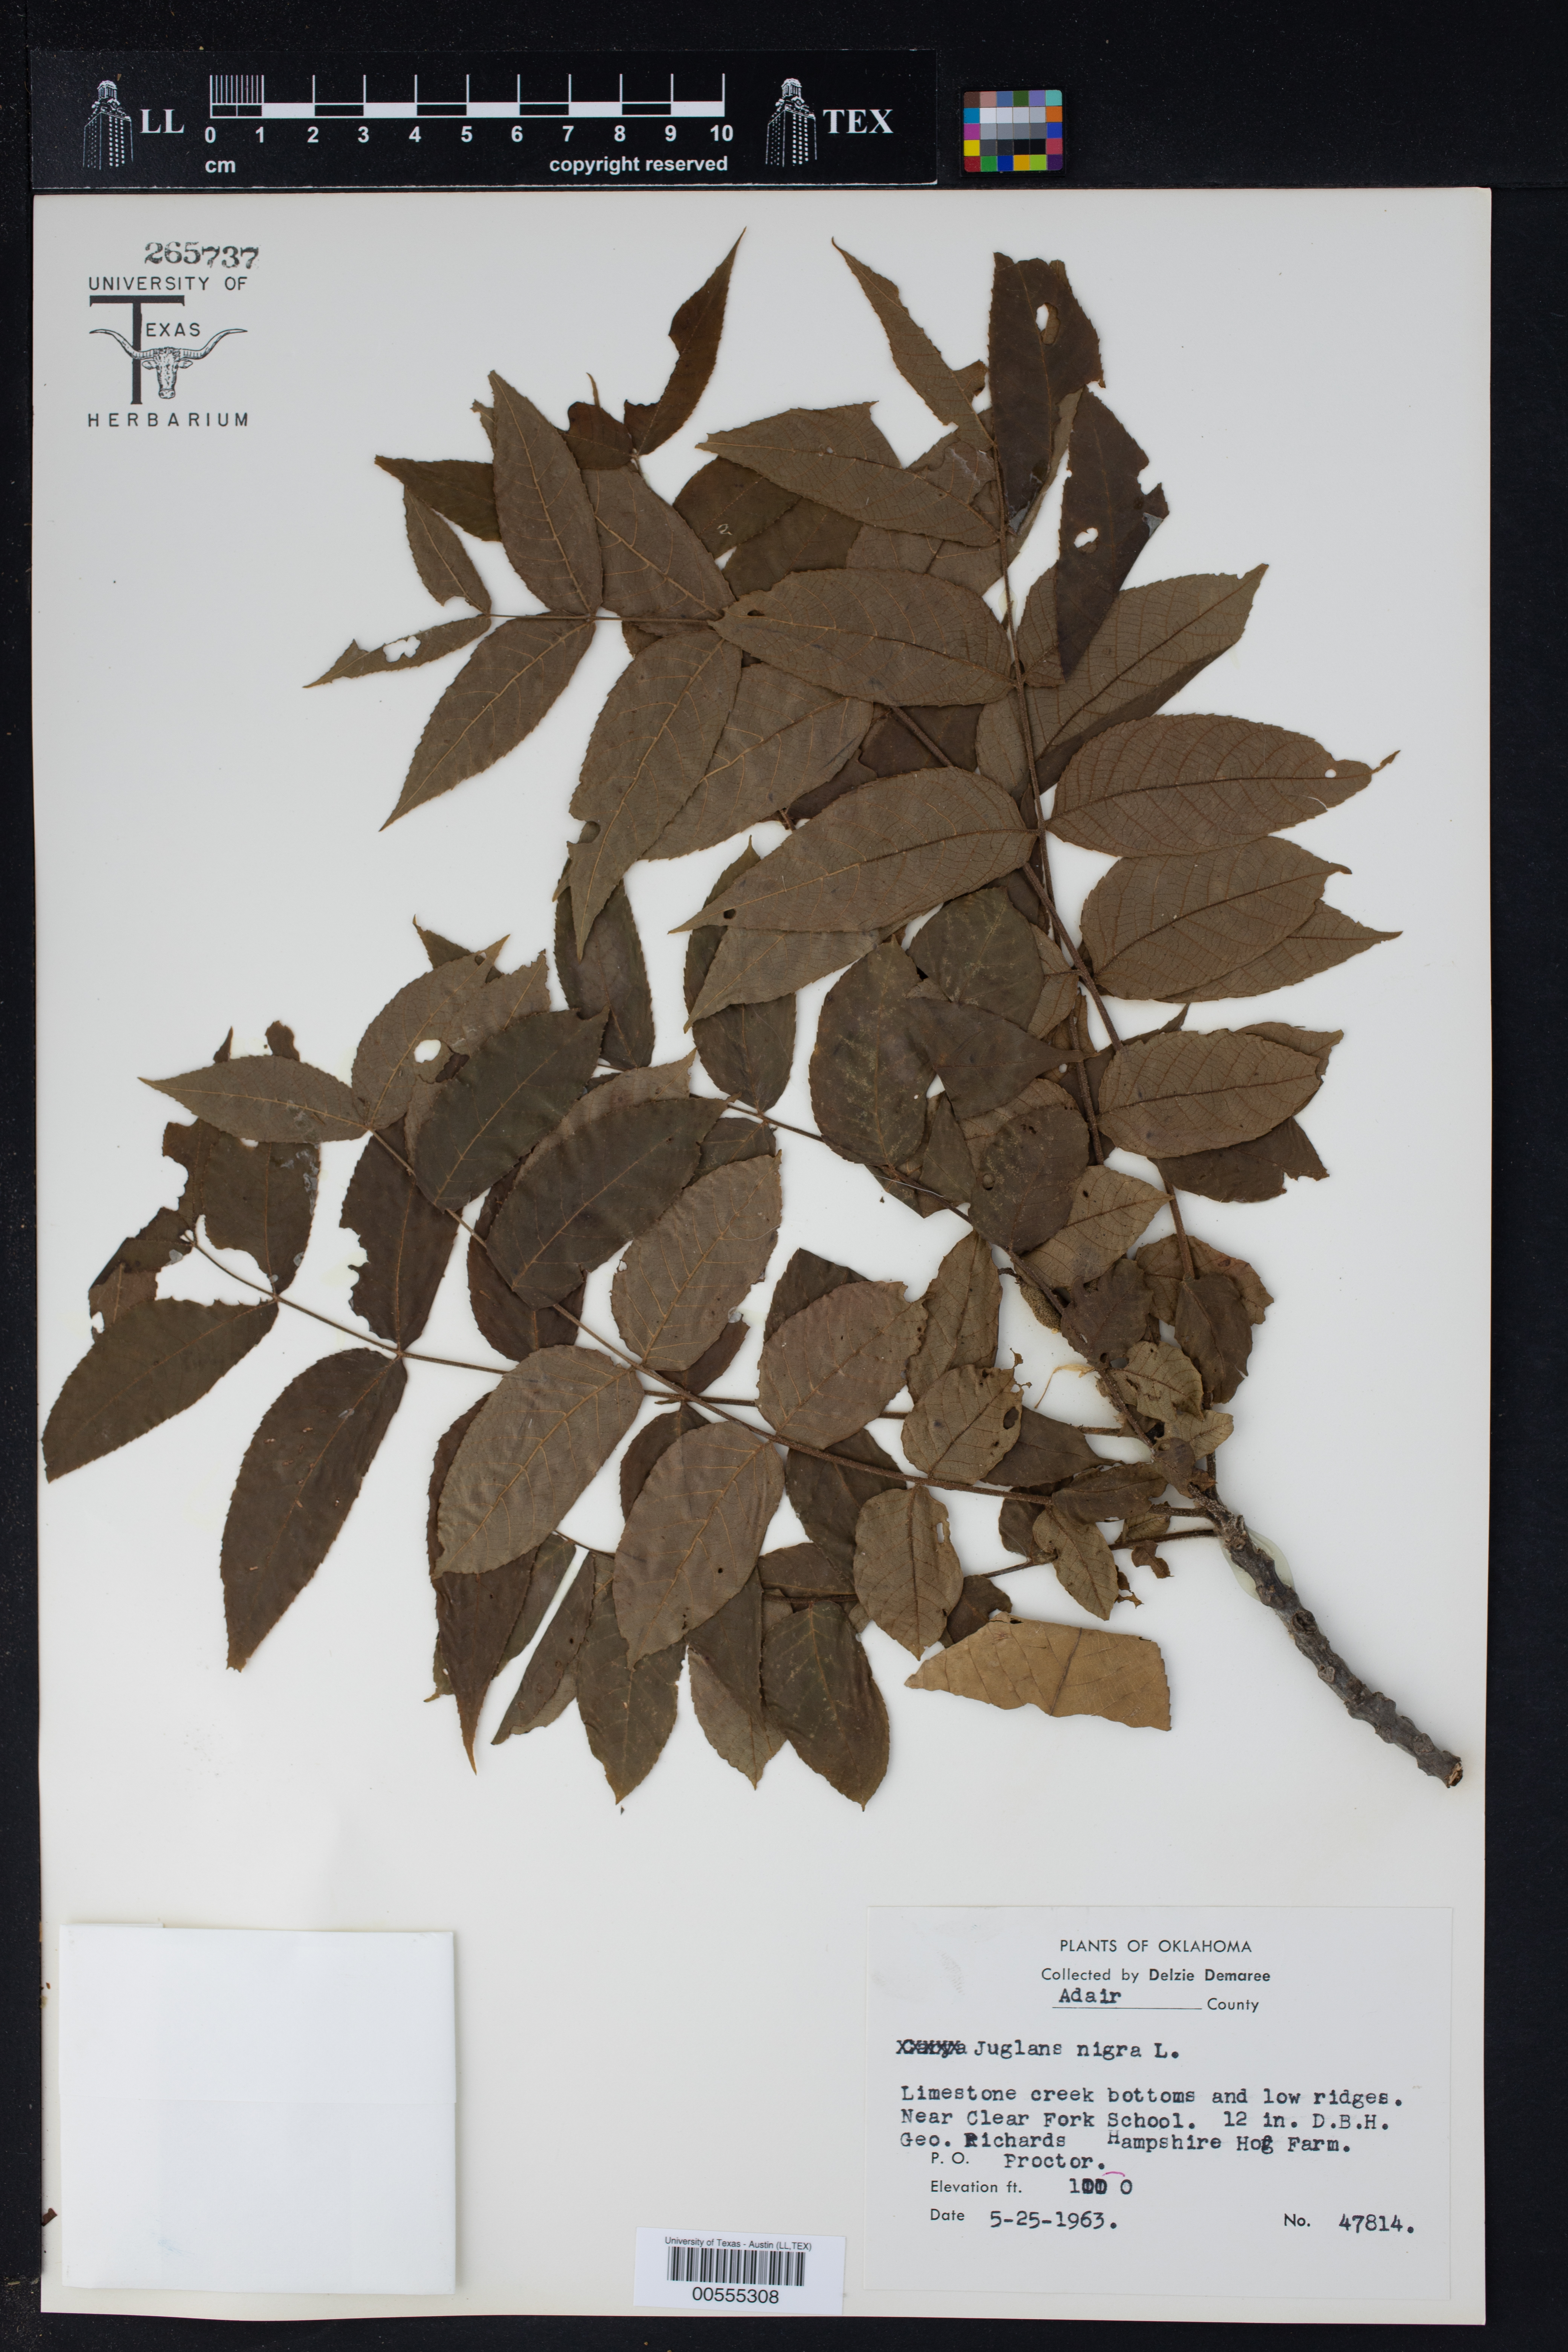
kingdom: Plantae
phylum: Tracheophyta
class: Magnoliopsida
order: Fagales
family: Juglandaceae
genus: Juglans
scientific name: Juglans nigra
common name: Black walnut
